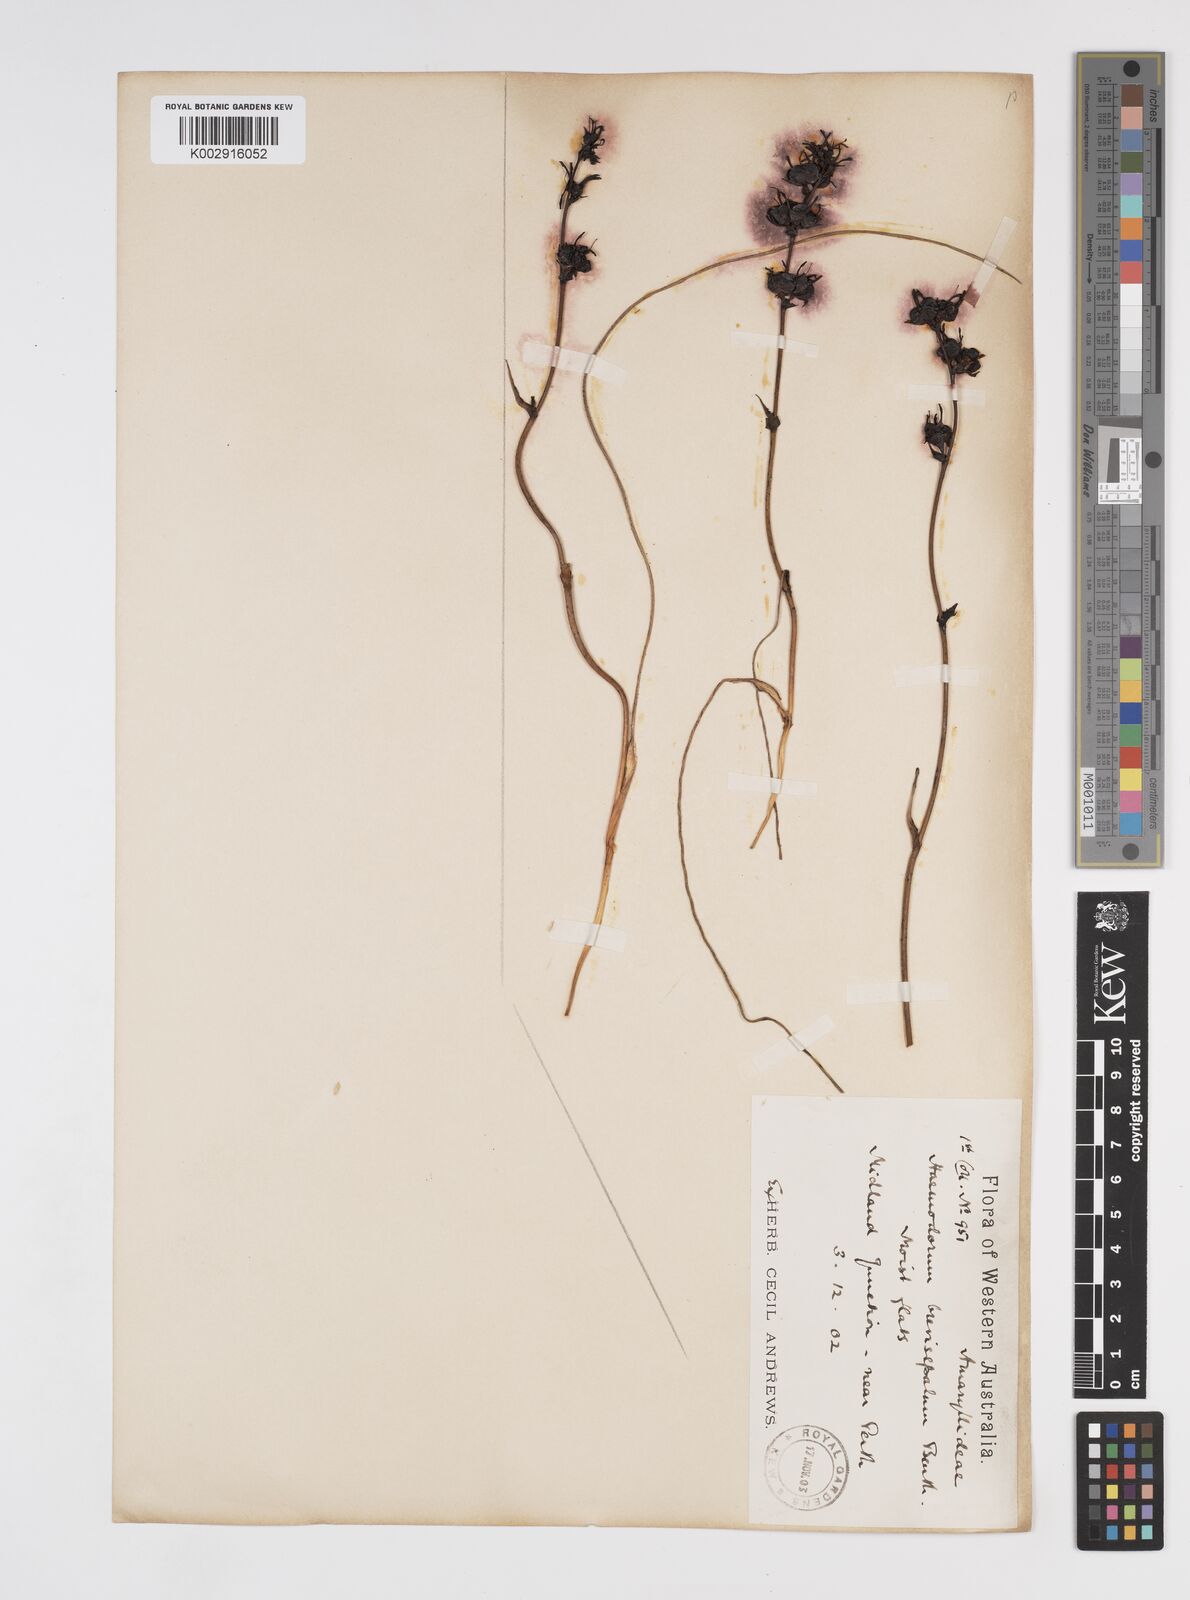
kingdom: Plantae
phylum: Tracheophyta
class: Liliopsida
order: Commelinales
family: Haemodoraceae
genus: Haemodorum
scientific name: Haemodorum brevisepalum
